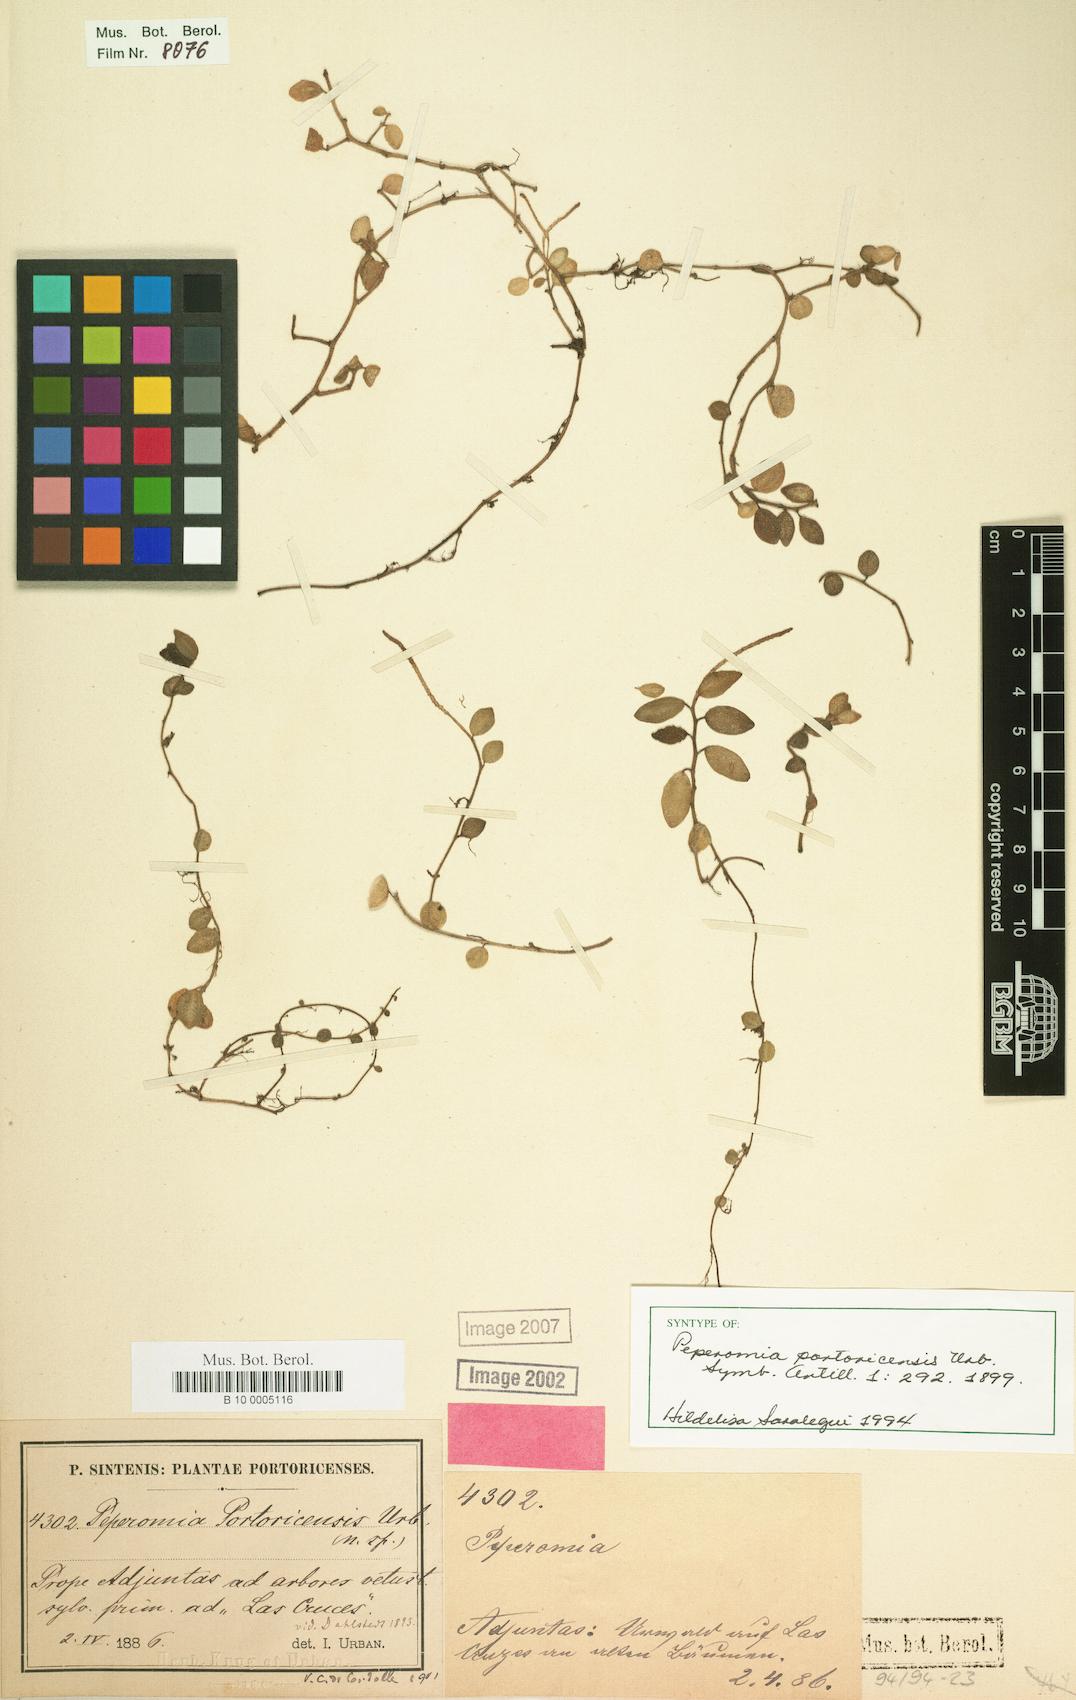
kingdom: Plantae
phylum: Tracheophyta
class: Magnoliopsida
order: Piperales
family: Piperaceae
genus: Peperomia
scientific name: Peperomia portoricensis
